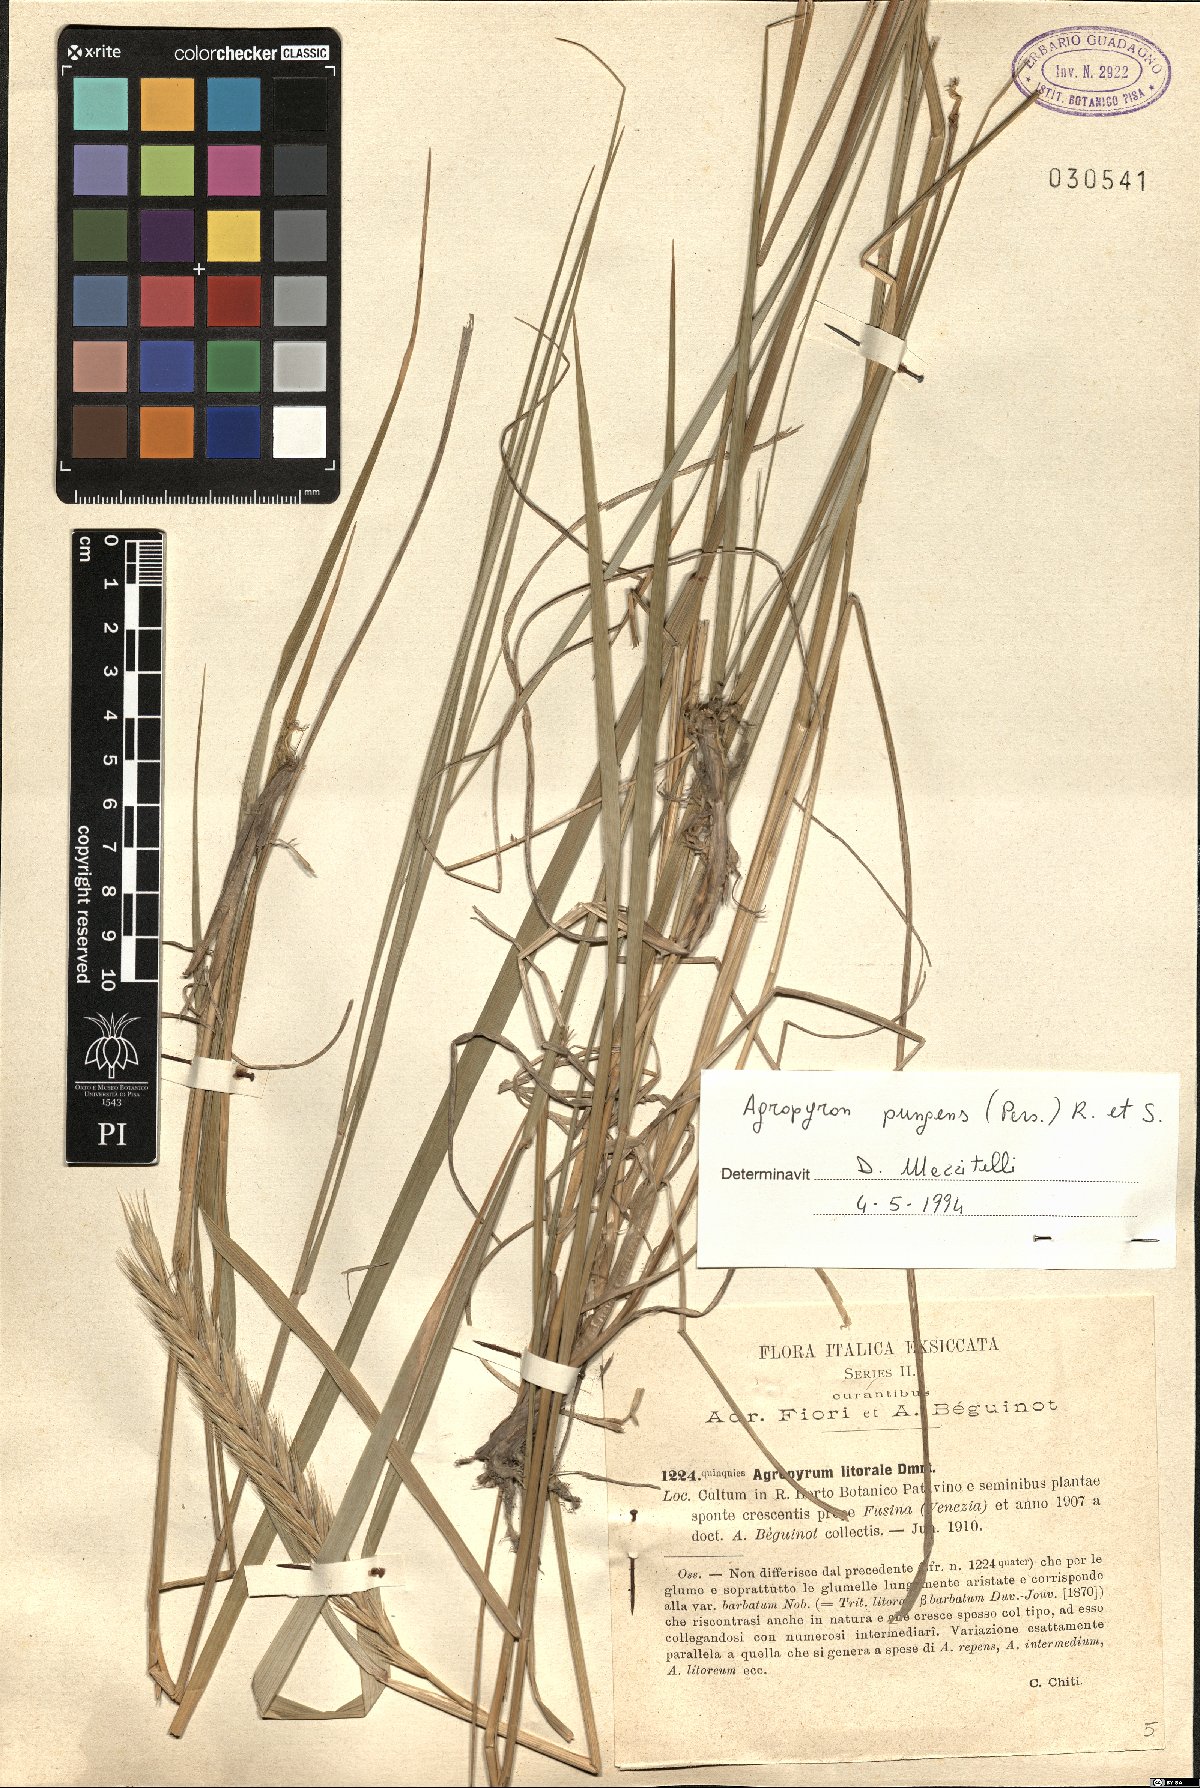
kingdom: Plantae
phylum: Tracheophyta
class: Liliopsida
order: Poales
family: Poaceae
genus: Elymus
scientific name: Elymus pungens
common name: Sea couch
